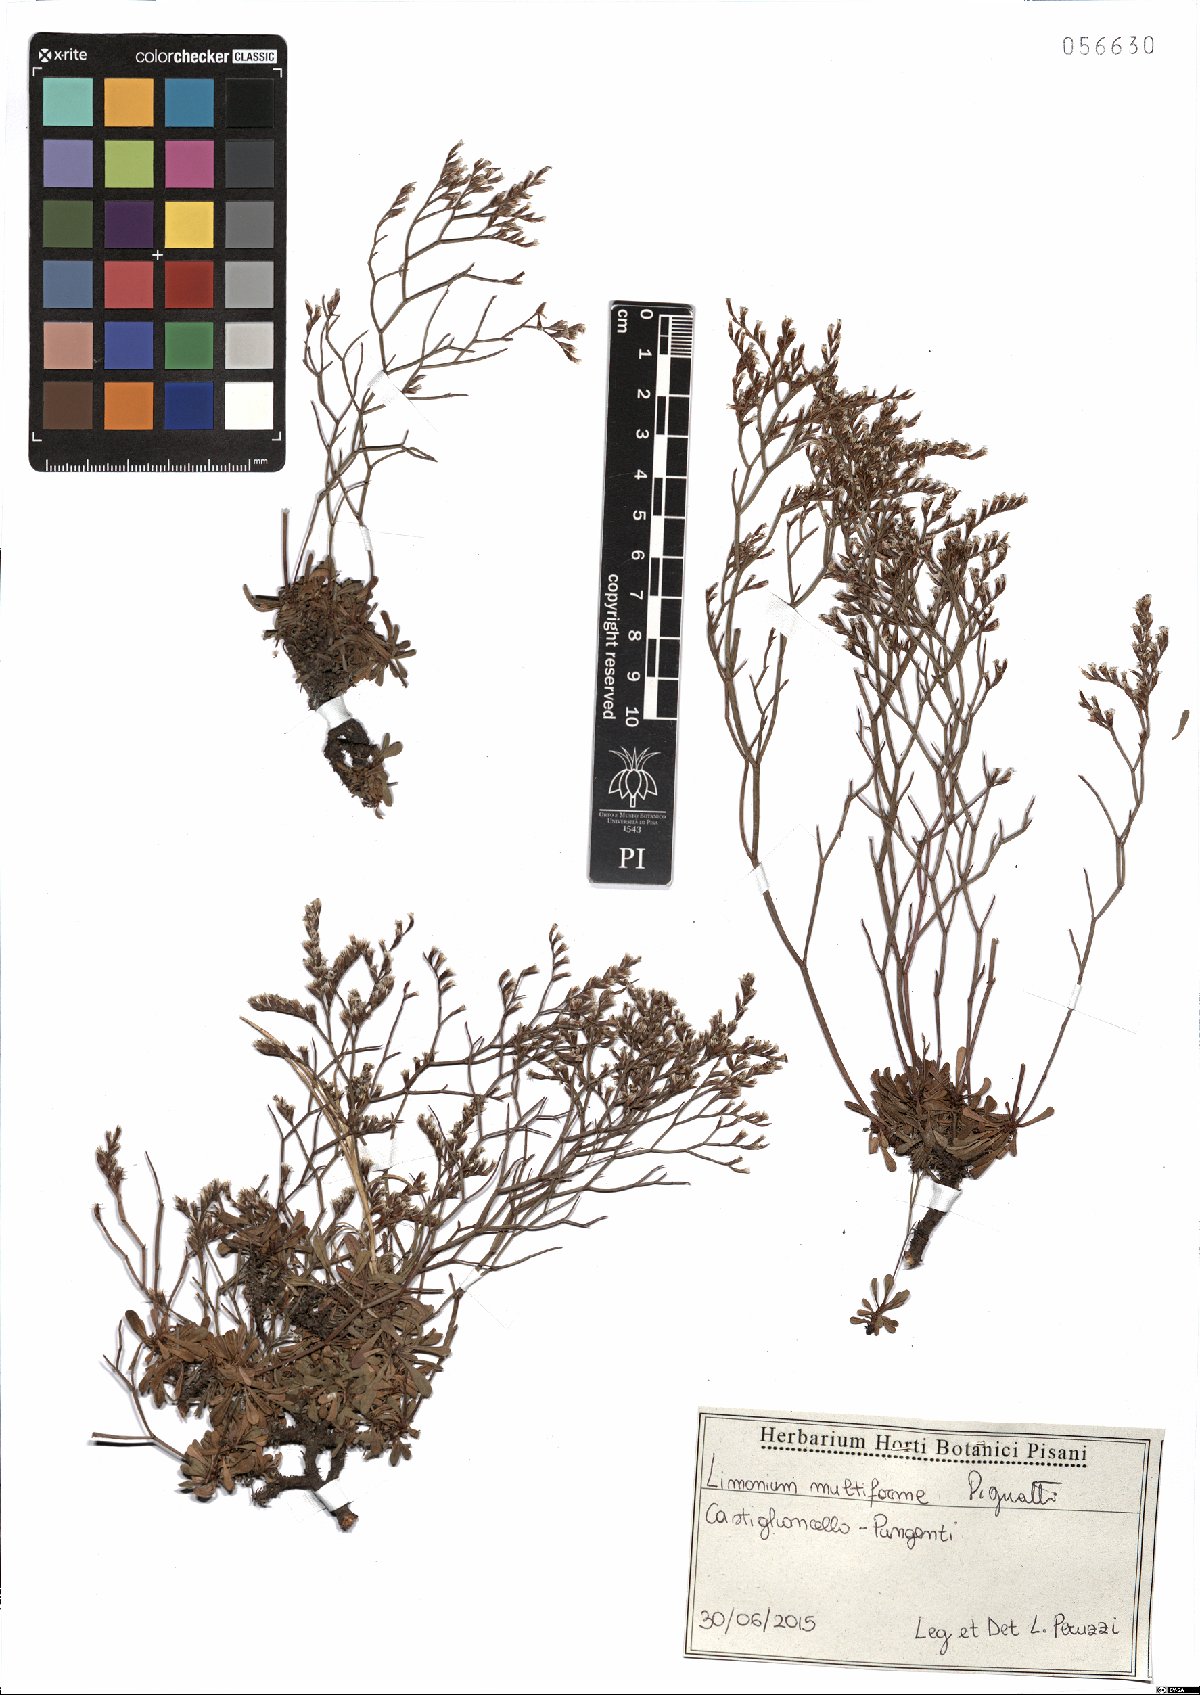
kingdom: Plantae
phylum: Tracheophyta
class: Magnoliopsida
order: Caryophyllales
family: Plumbaginaceae
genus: Limonium
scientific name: Limonium multiforme
